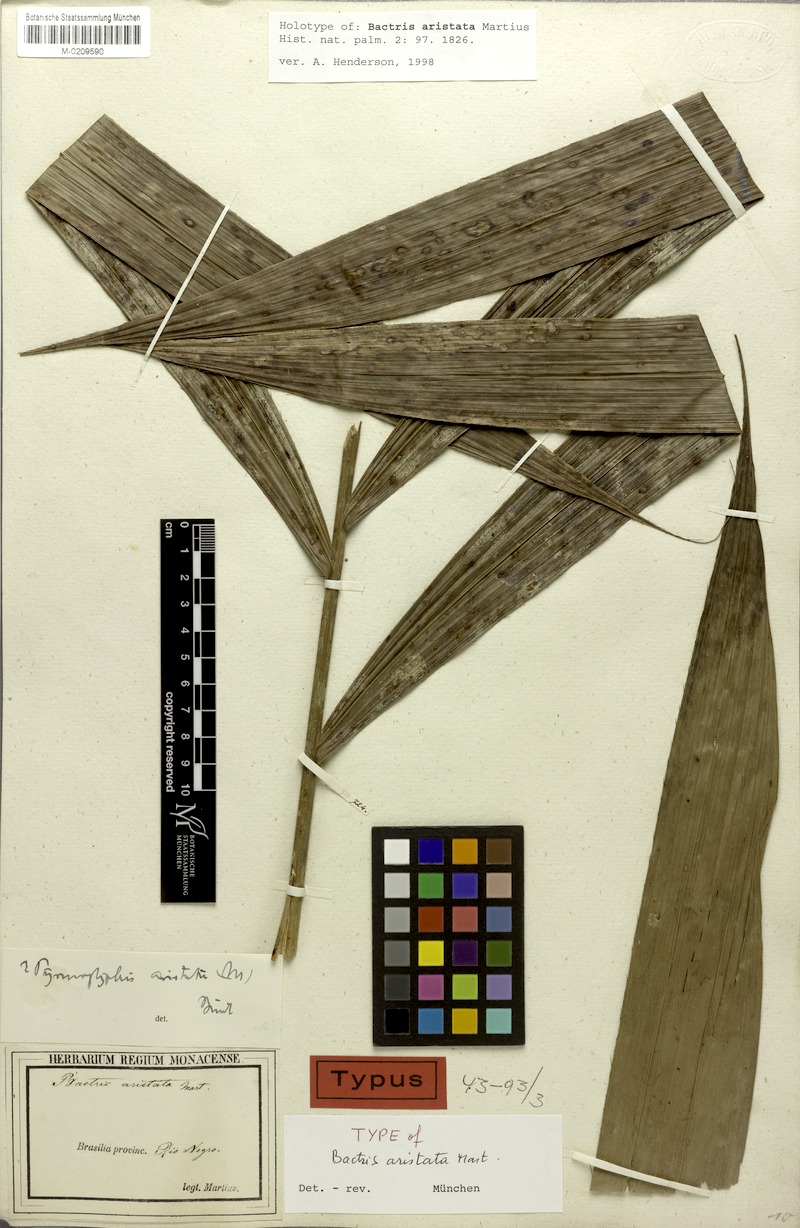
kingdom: Plantae
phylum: Tracheophyta
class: Liliopsida
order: Arecales
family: Arecaceae
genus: Bactris
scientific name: Bactris fissifrons
